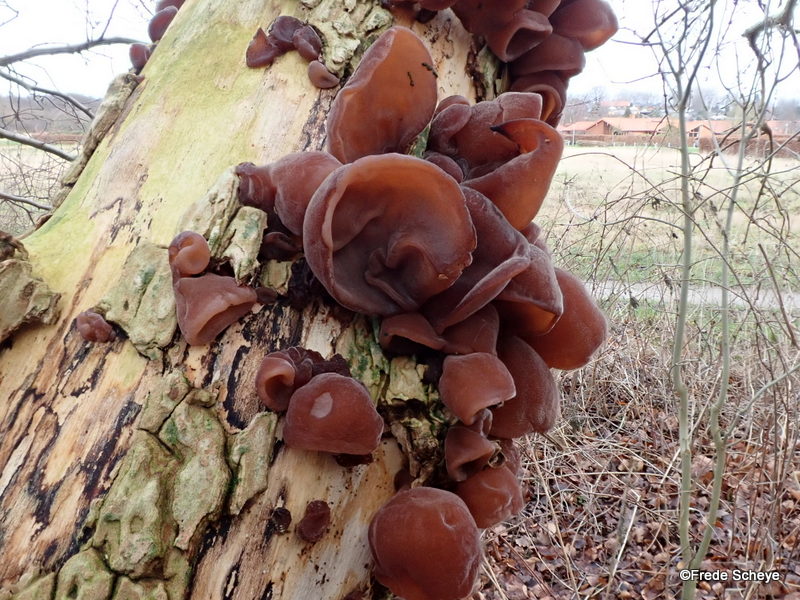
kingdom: Fungi
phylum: Basidiomycota
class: Agaricomycetes
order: Auriculariales
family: Auriculariaceae
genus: Auricularia
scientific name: Auricularia auricula-judae
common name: almindelig judasøre
